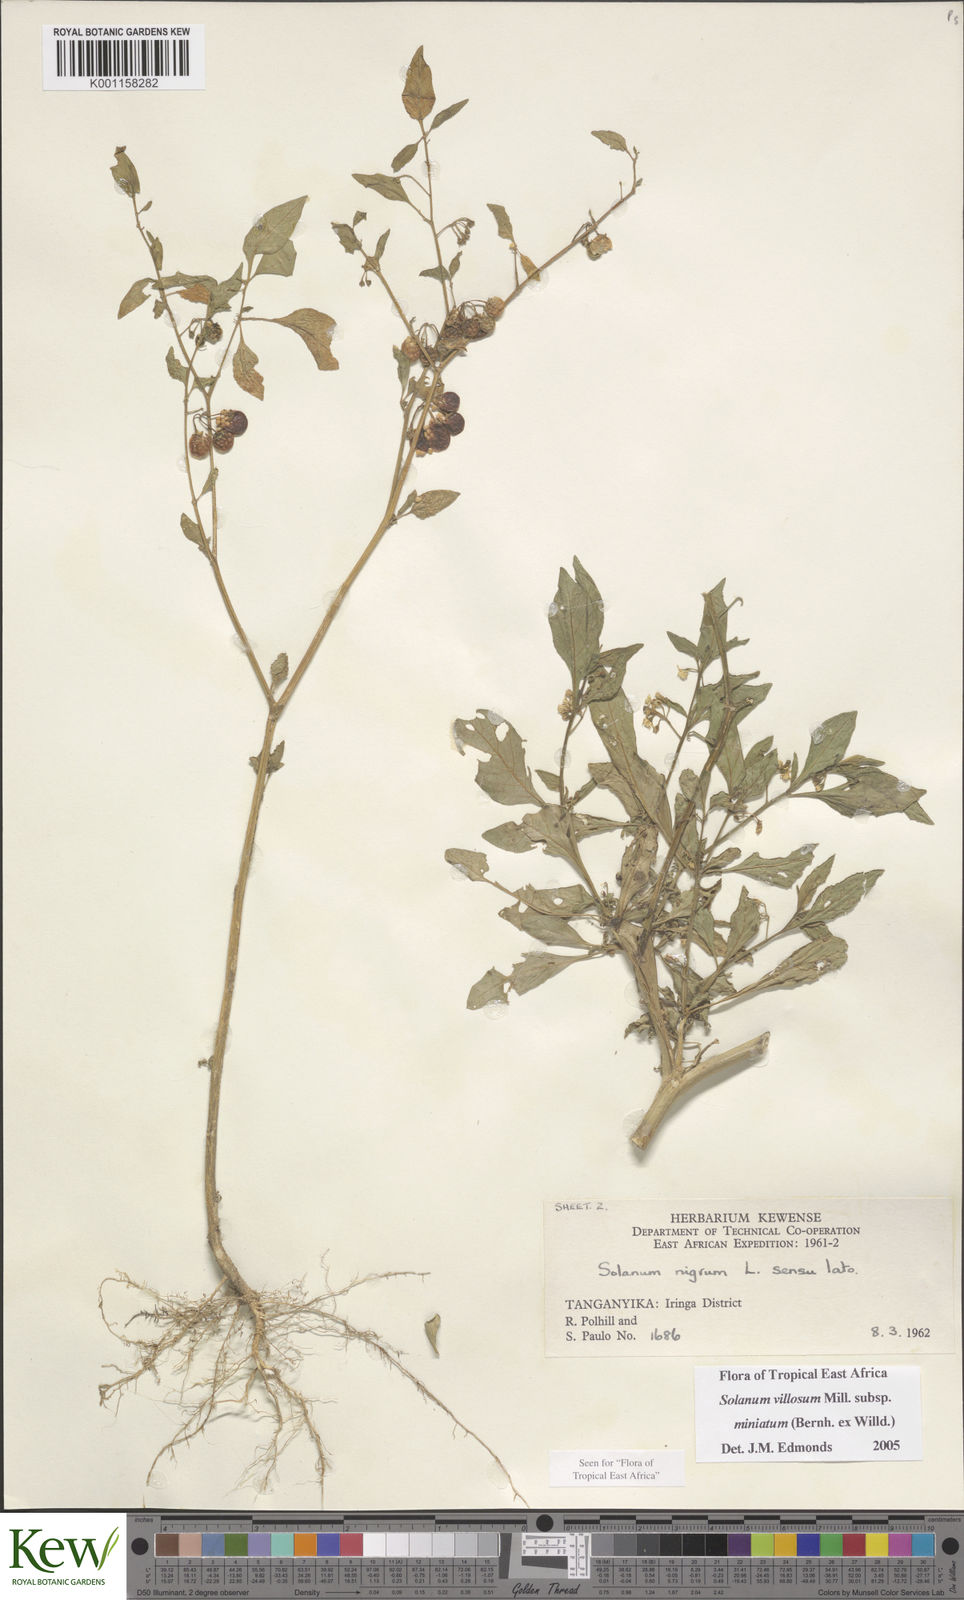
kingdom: Plantae
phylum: Tracheophyta
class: Magnoliopsida
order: Solanales
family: Solanaceae
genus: Solanum
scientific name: Solanum villosum
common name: Red nightshade
